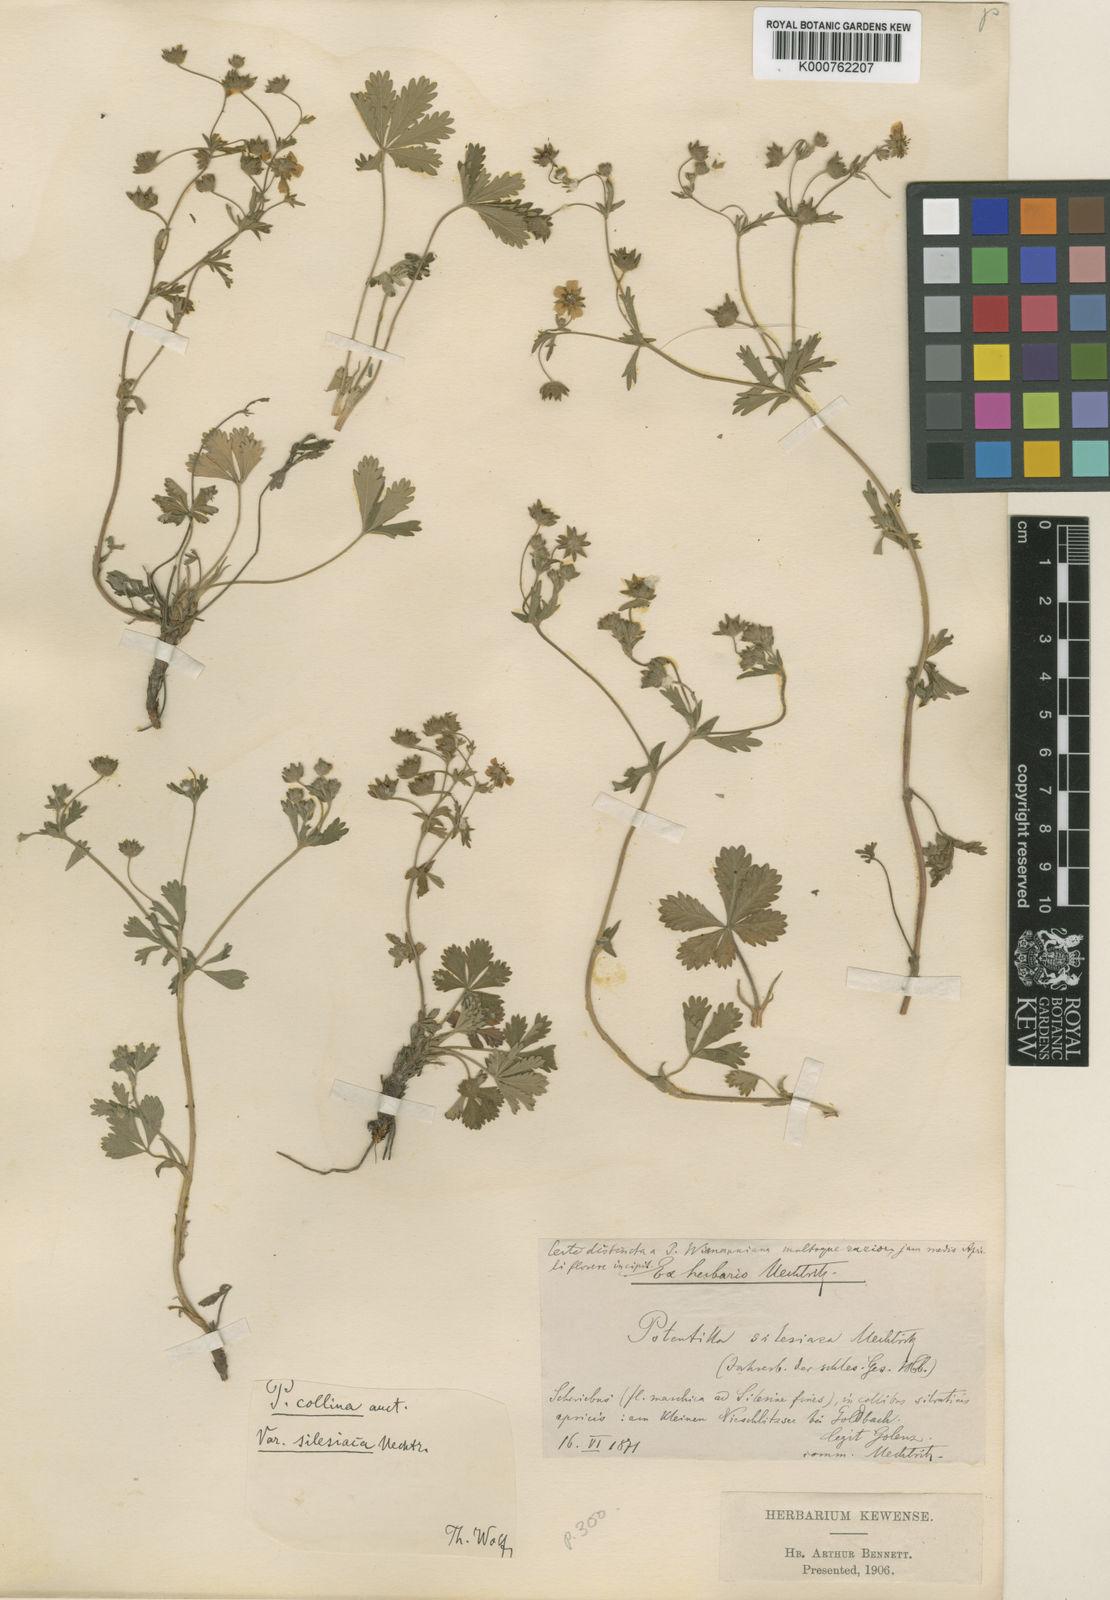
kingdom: Plantae
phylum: Tracheophyta
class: Magnoliopsida
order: Rosales
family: Rosaceae
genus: Potentilla
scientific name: Potentilla silesiaca
